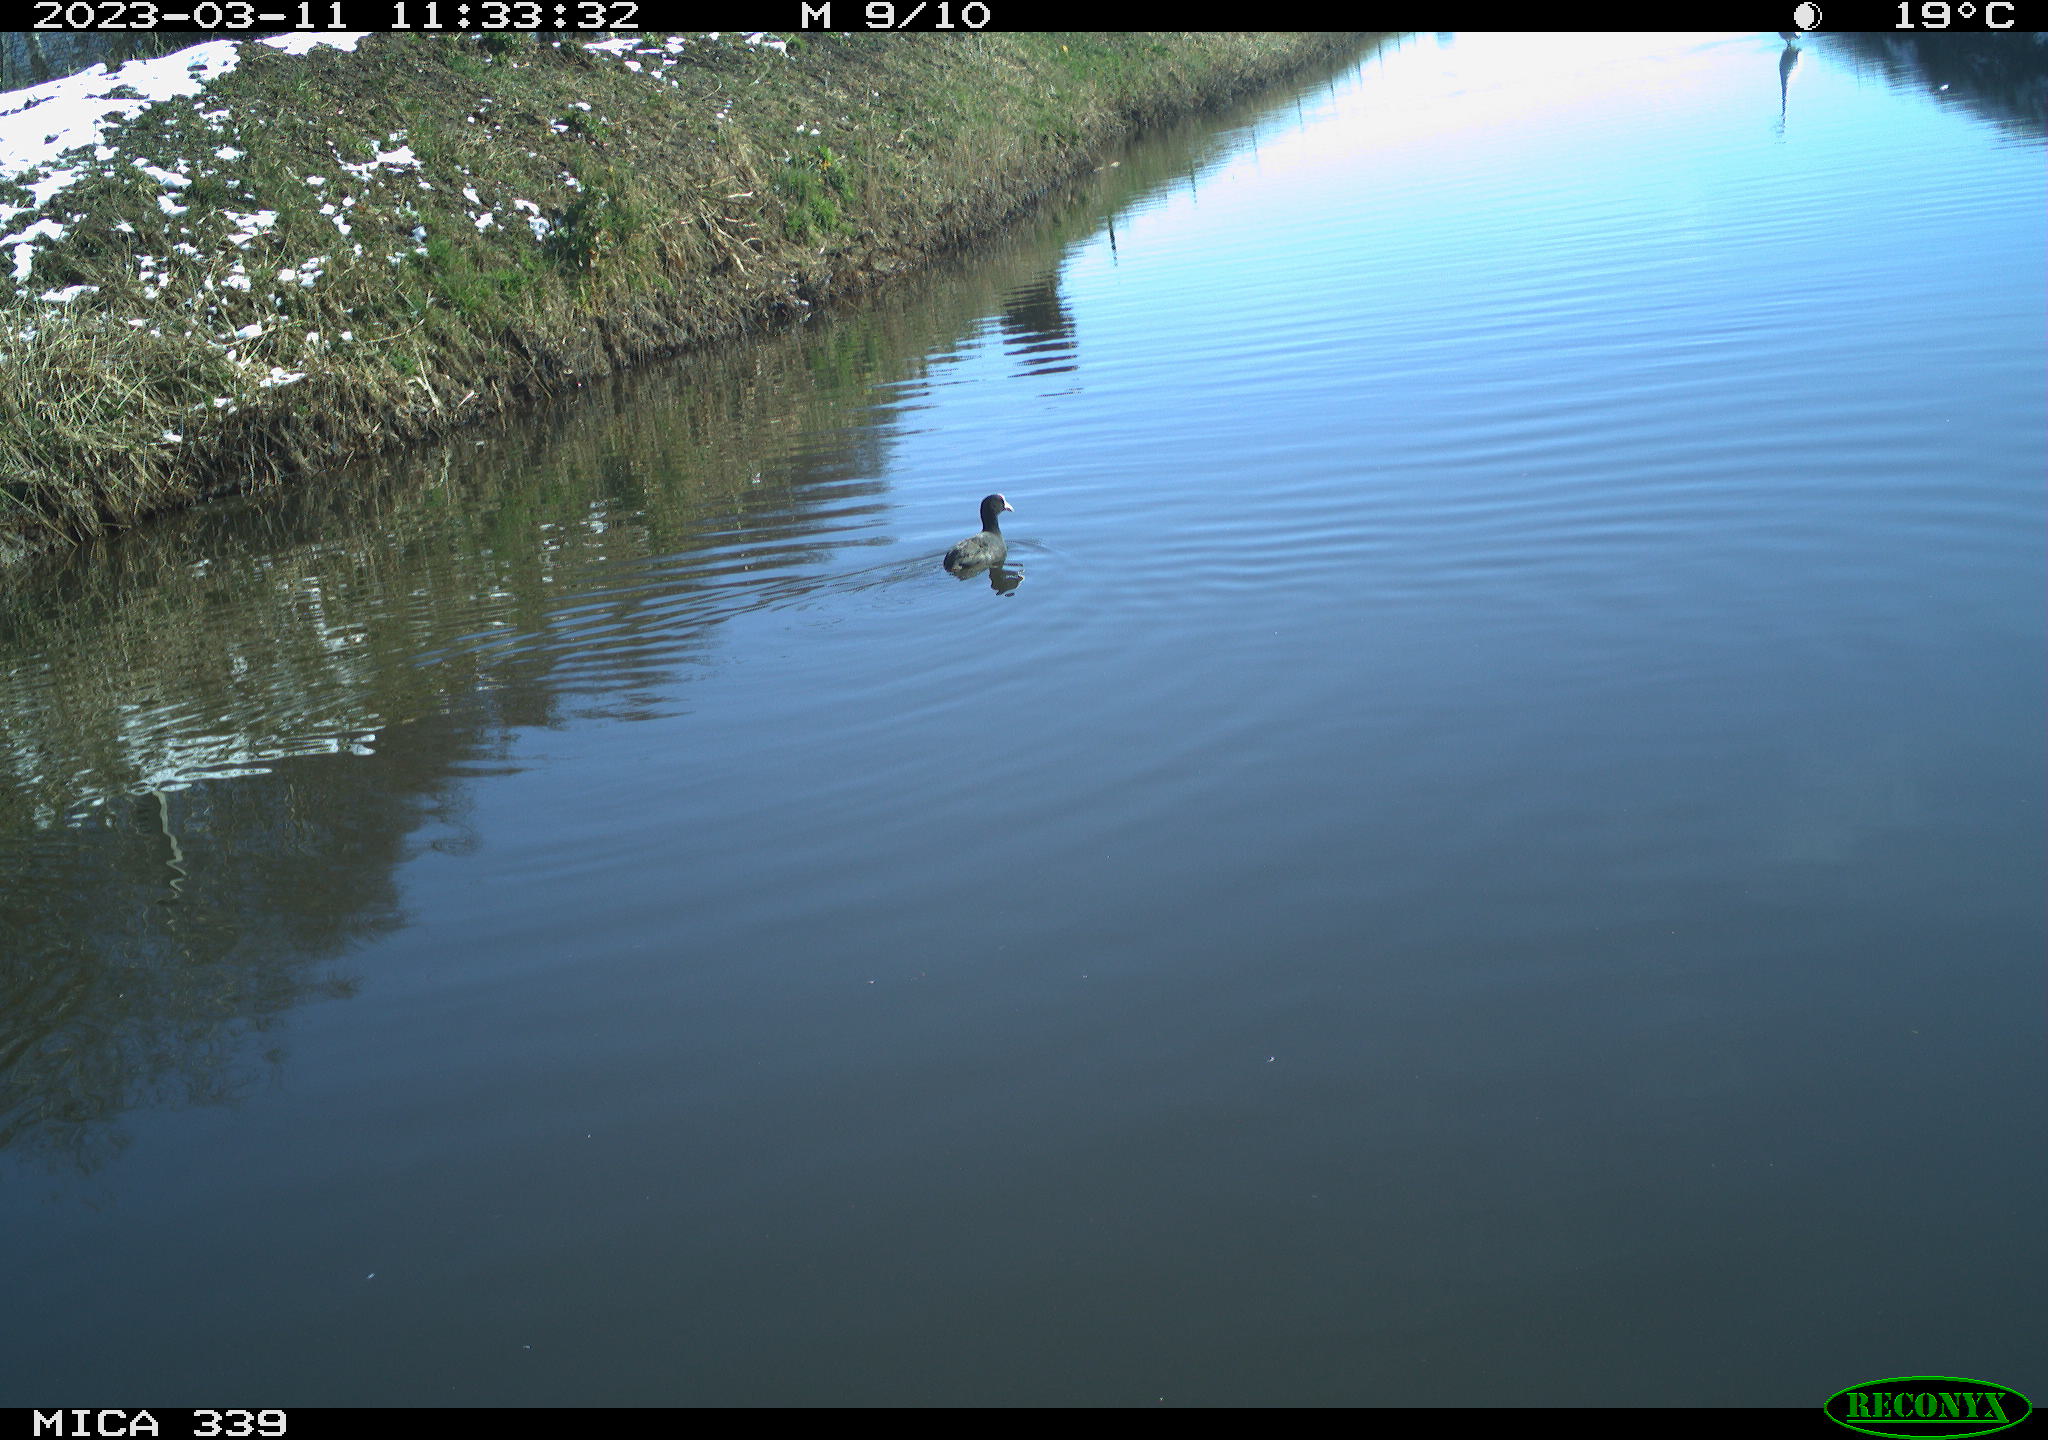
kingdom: Animalia
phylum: Chordata
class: Aves
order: Gruiformes
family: Rallidae
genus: Fulica
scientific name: Fulica atra
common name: Eurasian coot
